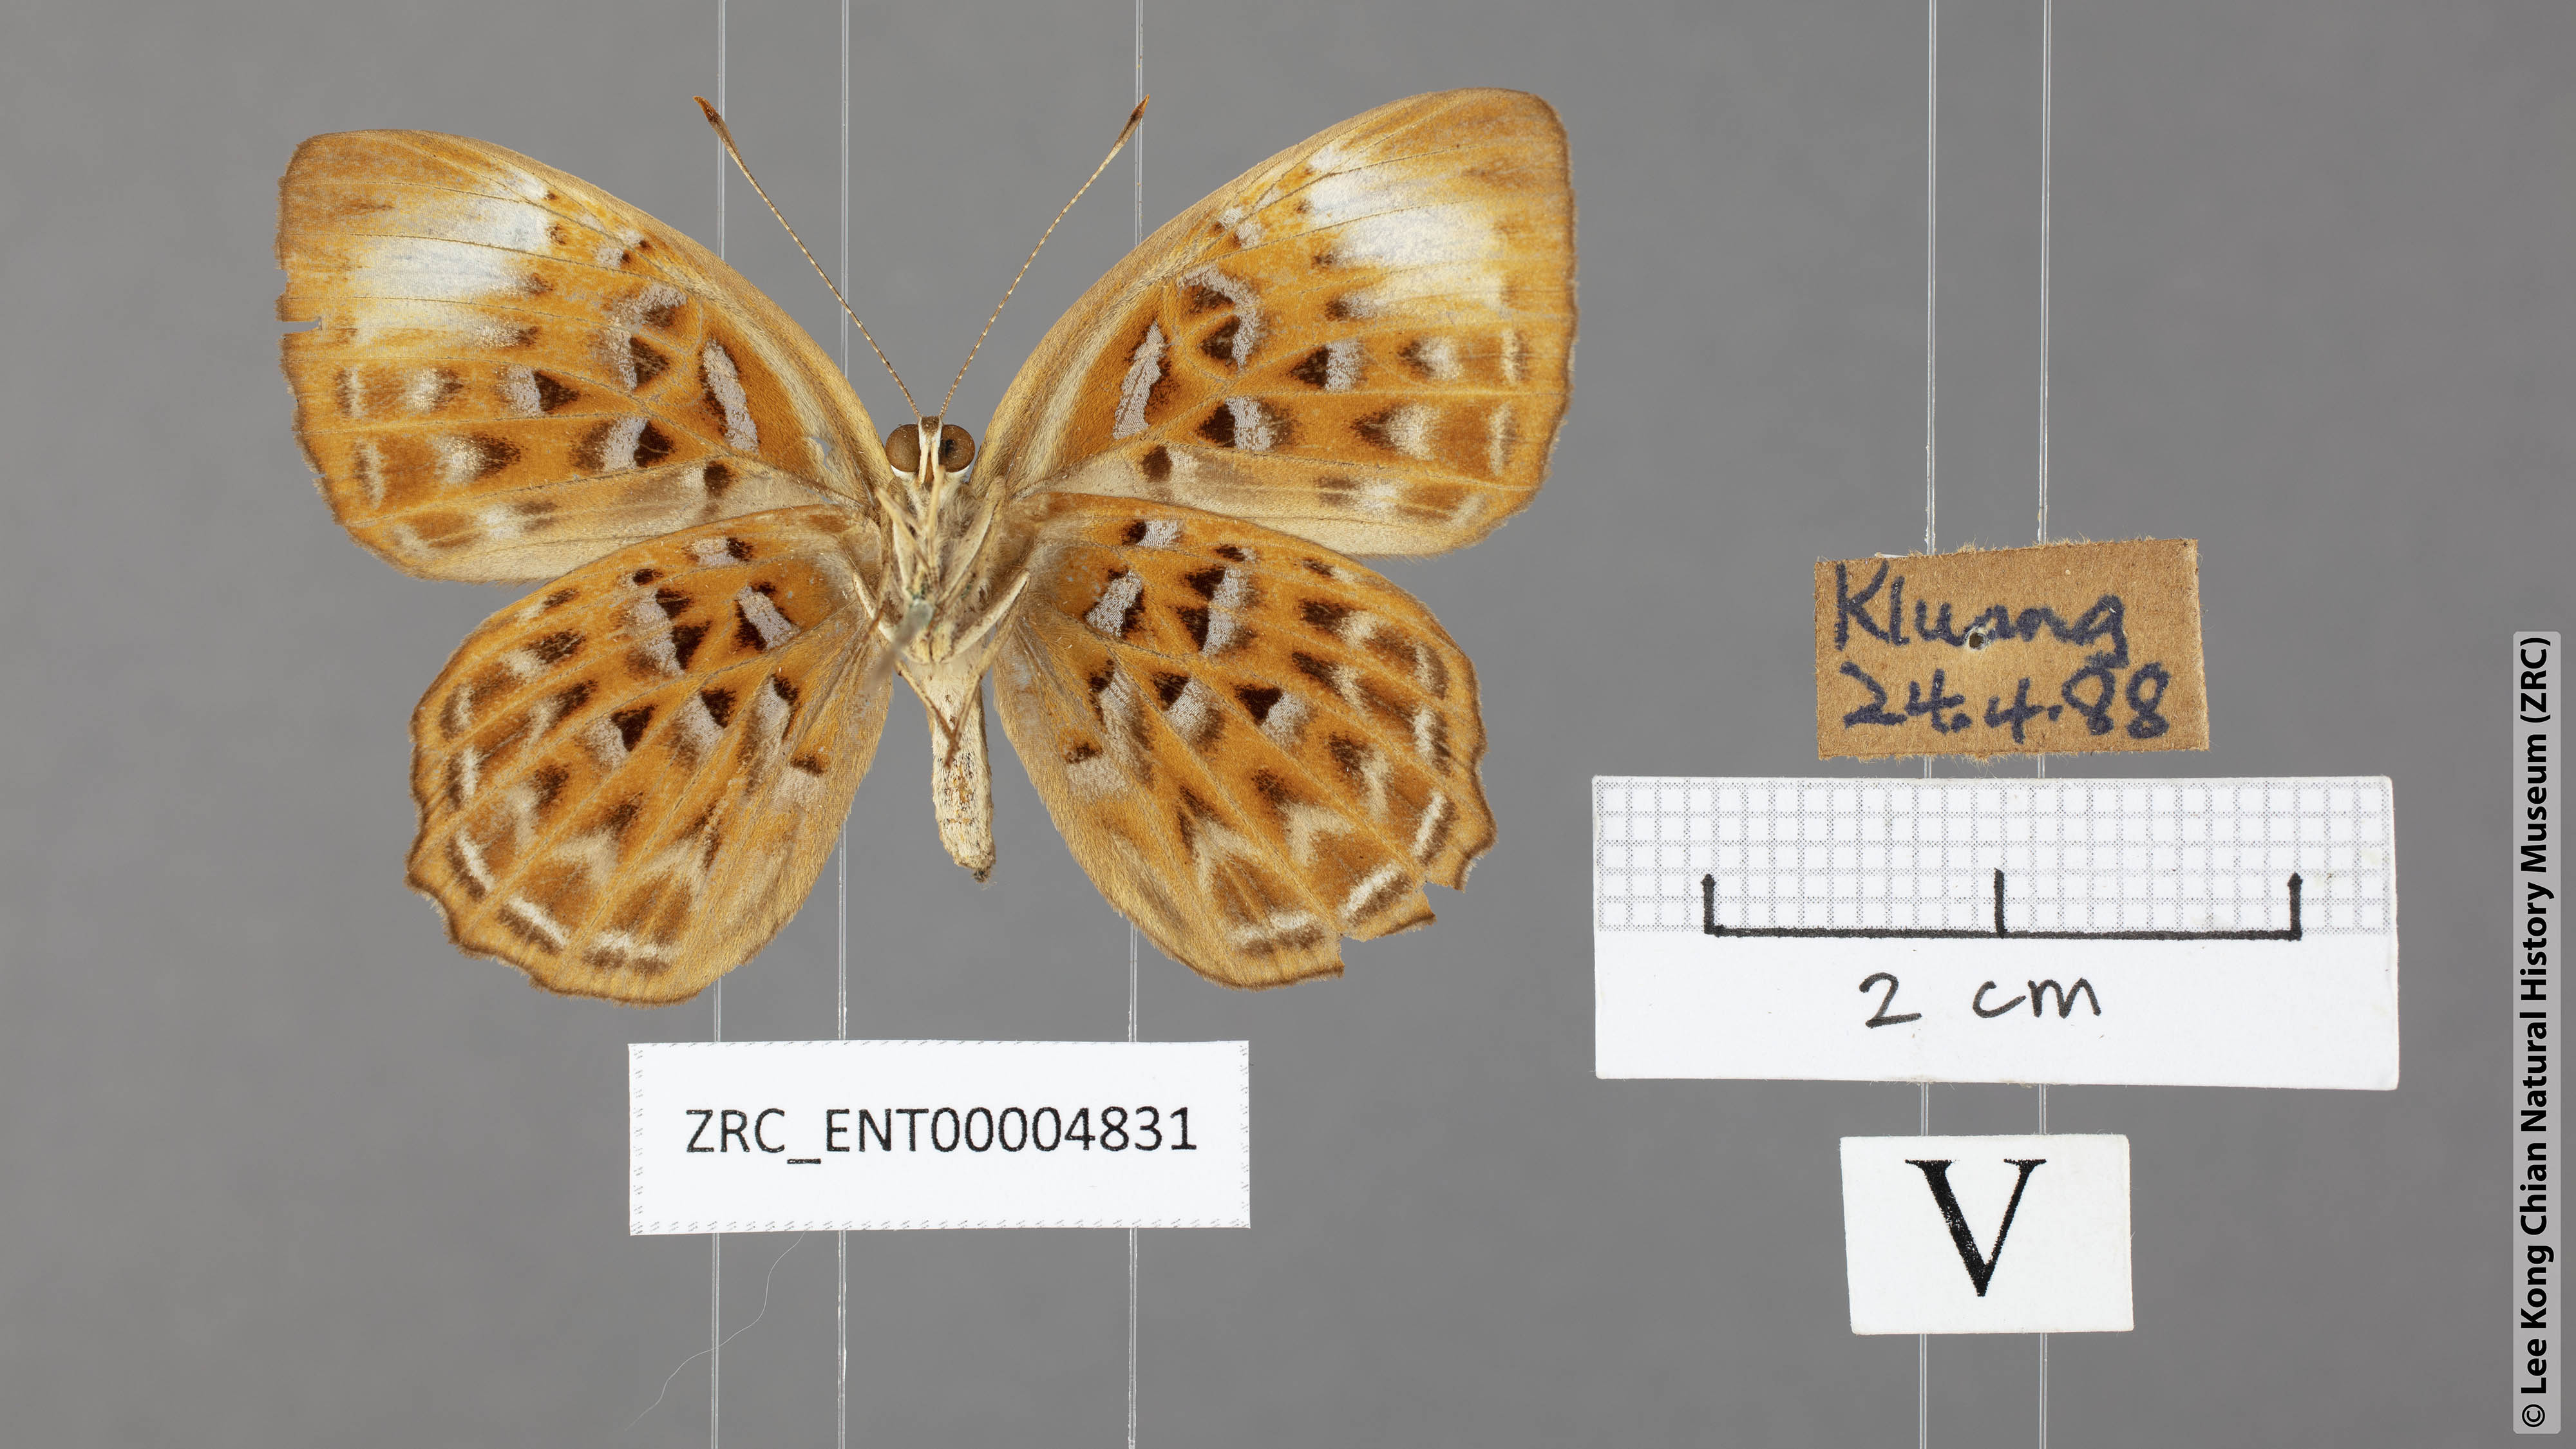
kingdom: Animalia
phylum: Arthropoda
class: Insecta
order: Lepidoptera
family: Erebidae
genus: Dysschema
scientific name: Dysschema
